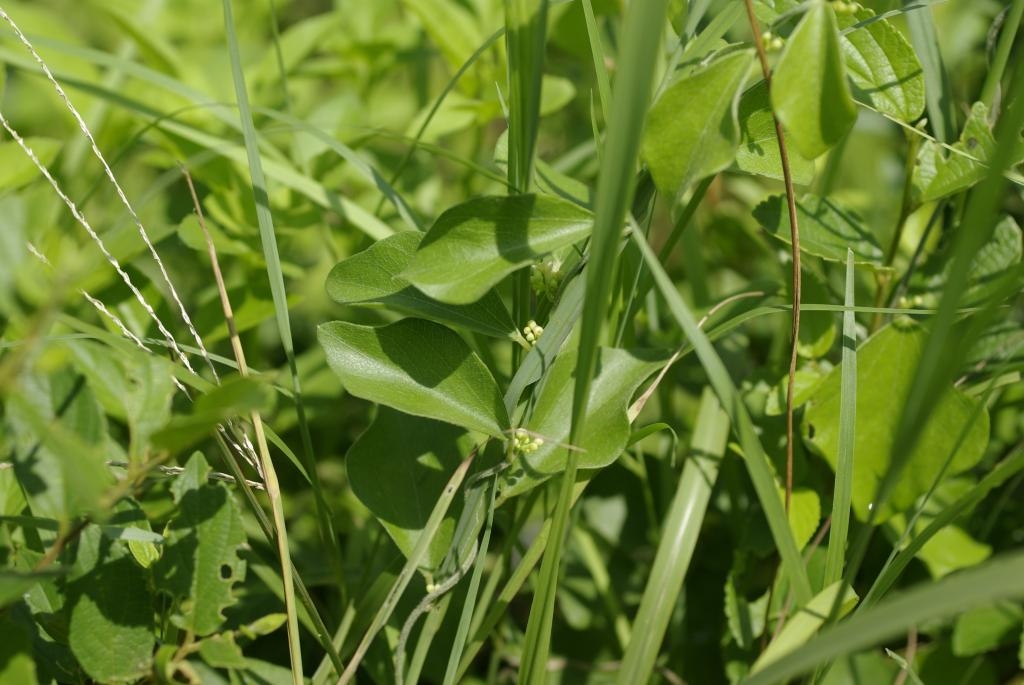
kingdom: Plantae
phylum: Tracheophyta
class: Magnoliopsida
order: Ranunculales
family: Menispermaceae
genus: Cocculus
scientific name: Cocculus orbiculatus
